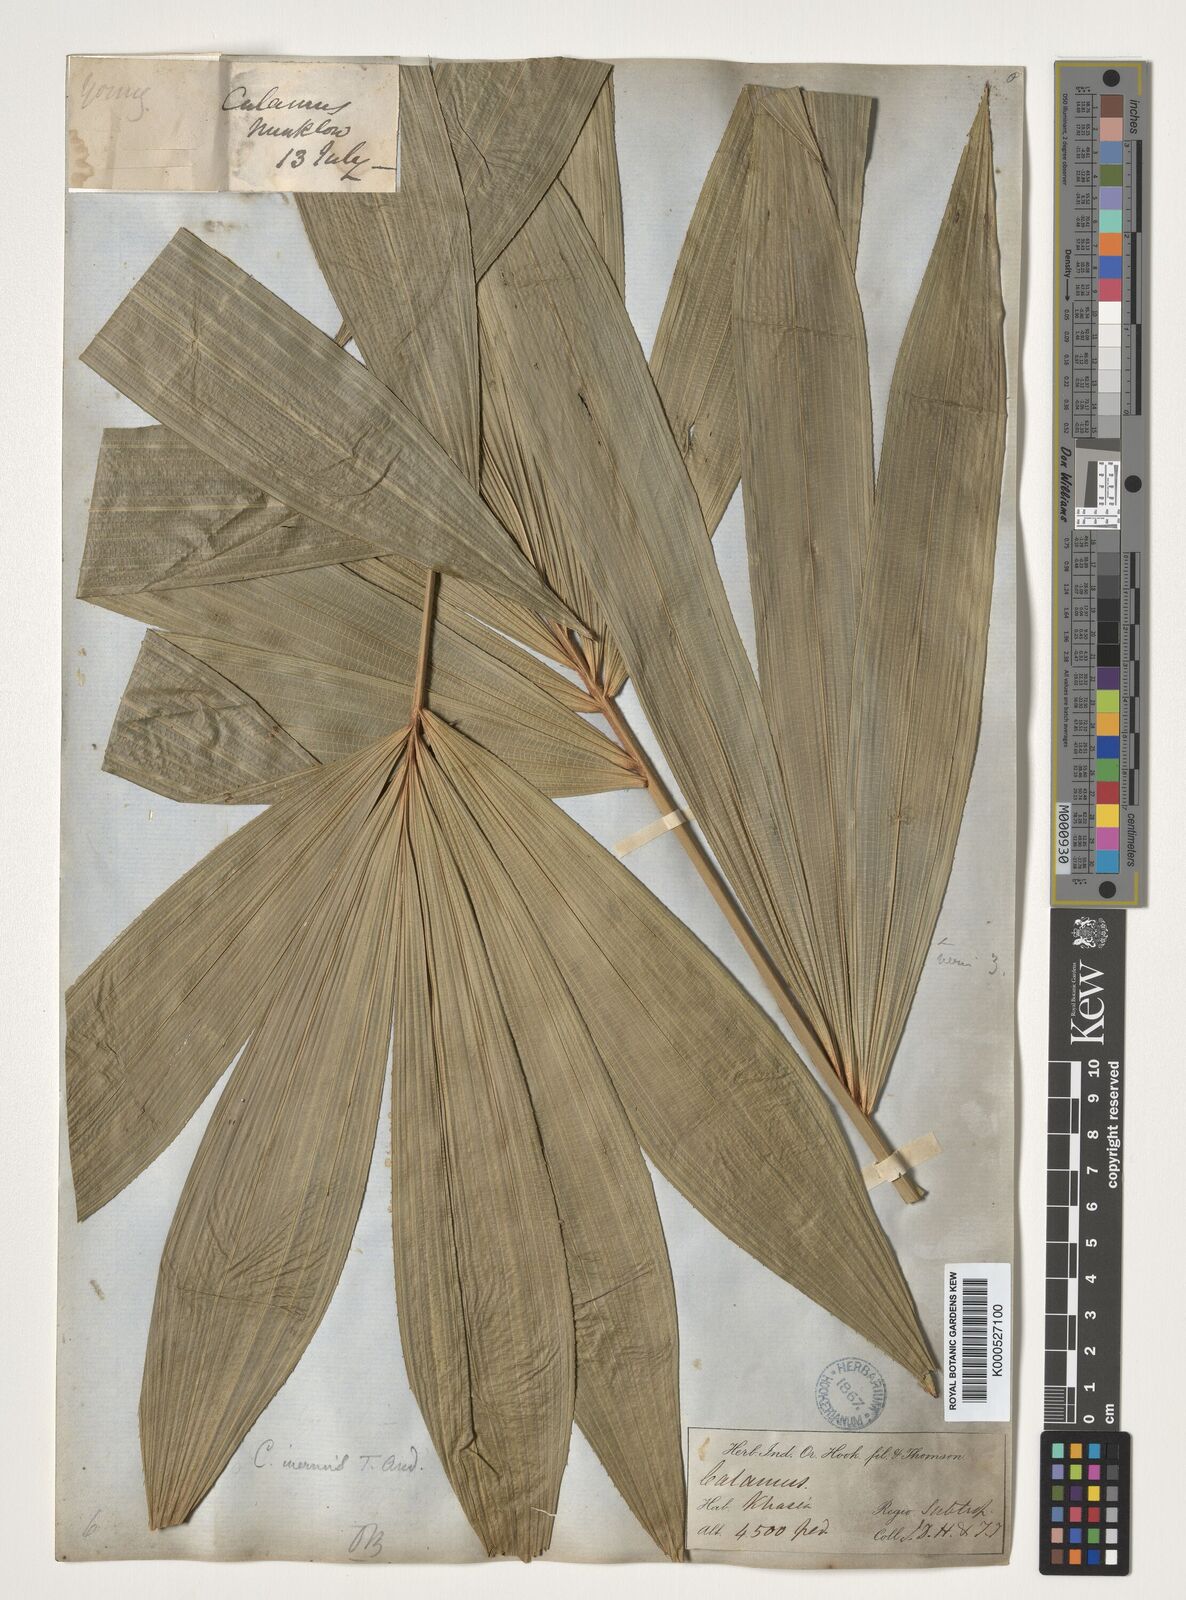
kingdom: Plantae
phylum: Tracheophyta
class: Liliopsida
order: Arecales
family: Arecaceae
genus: Calamus
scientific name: Calamus latifolius
